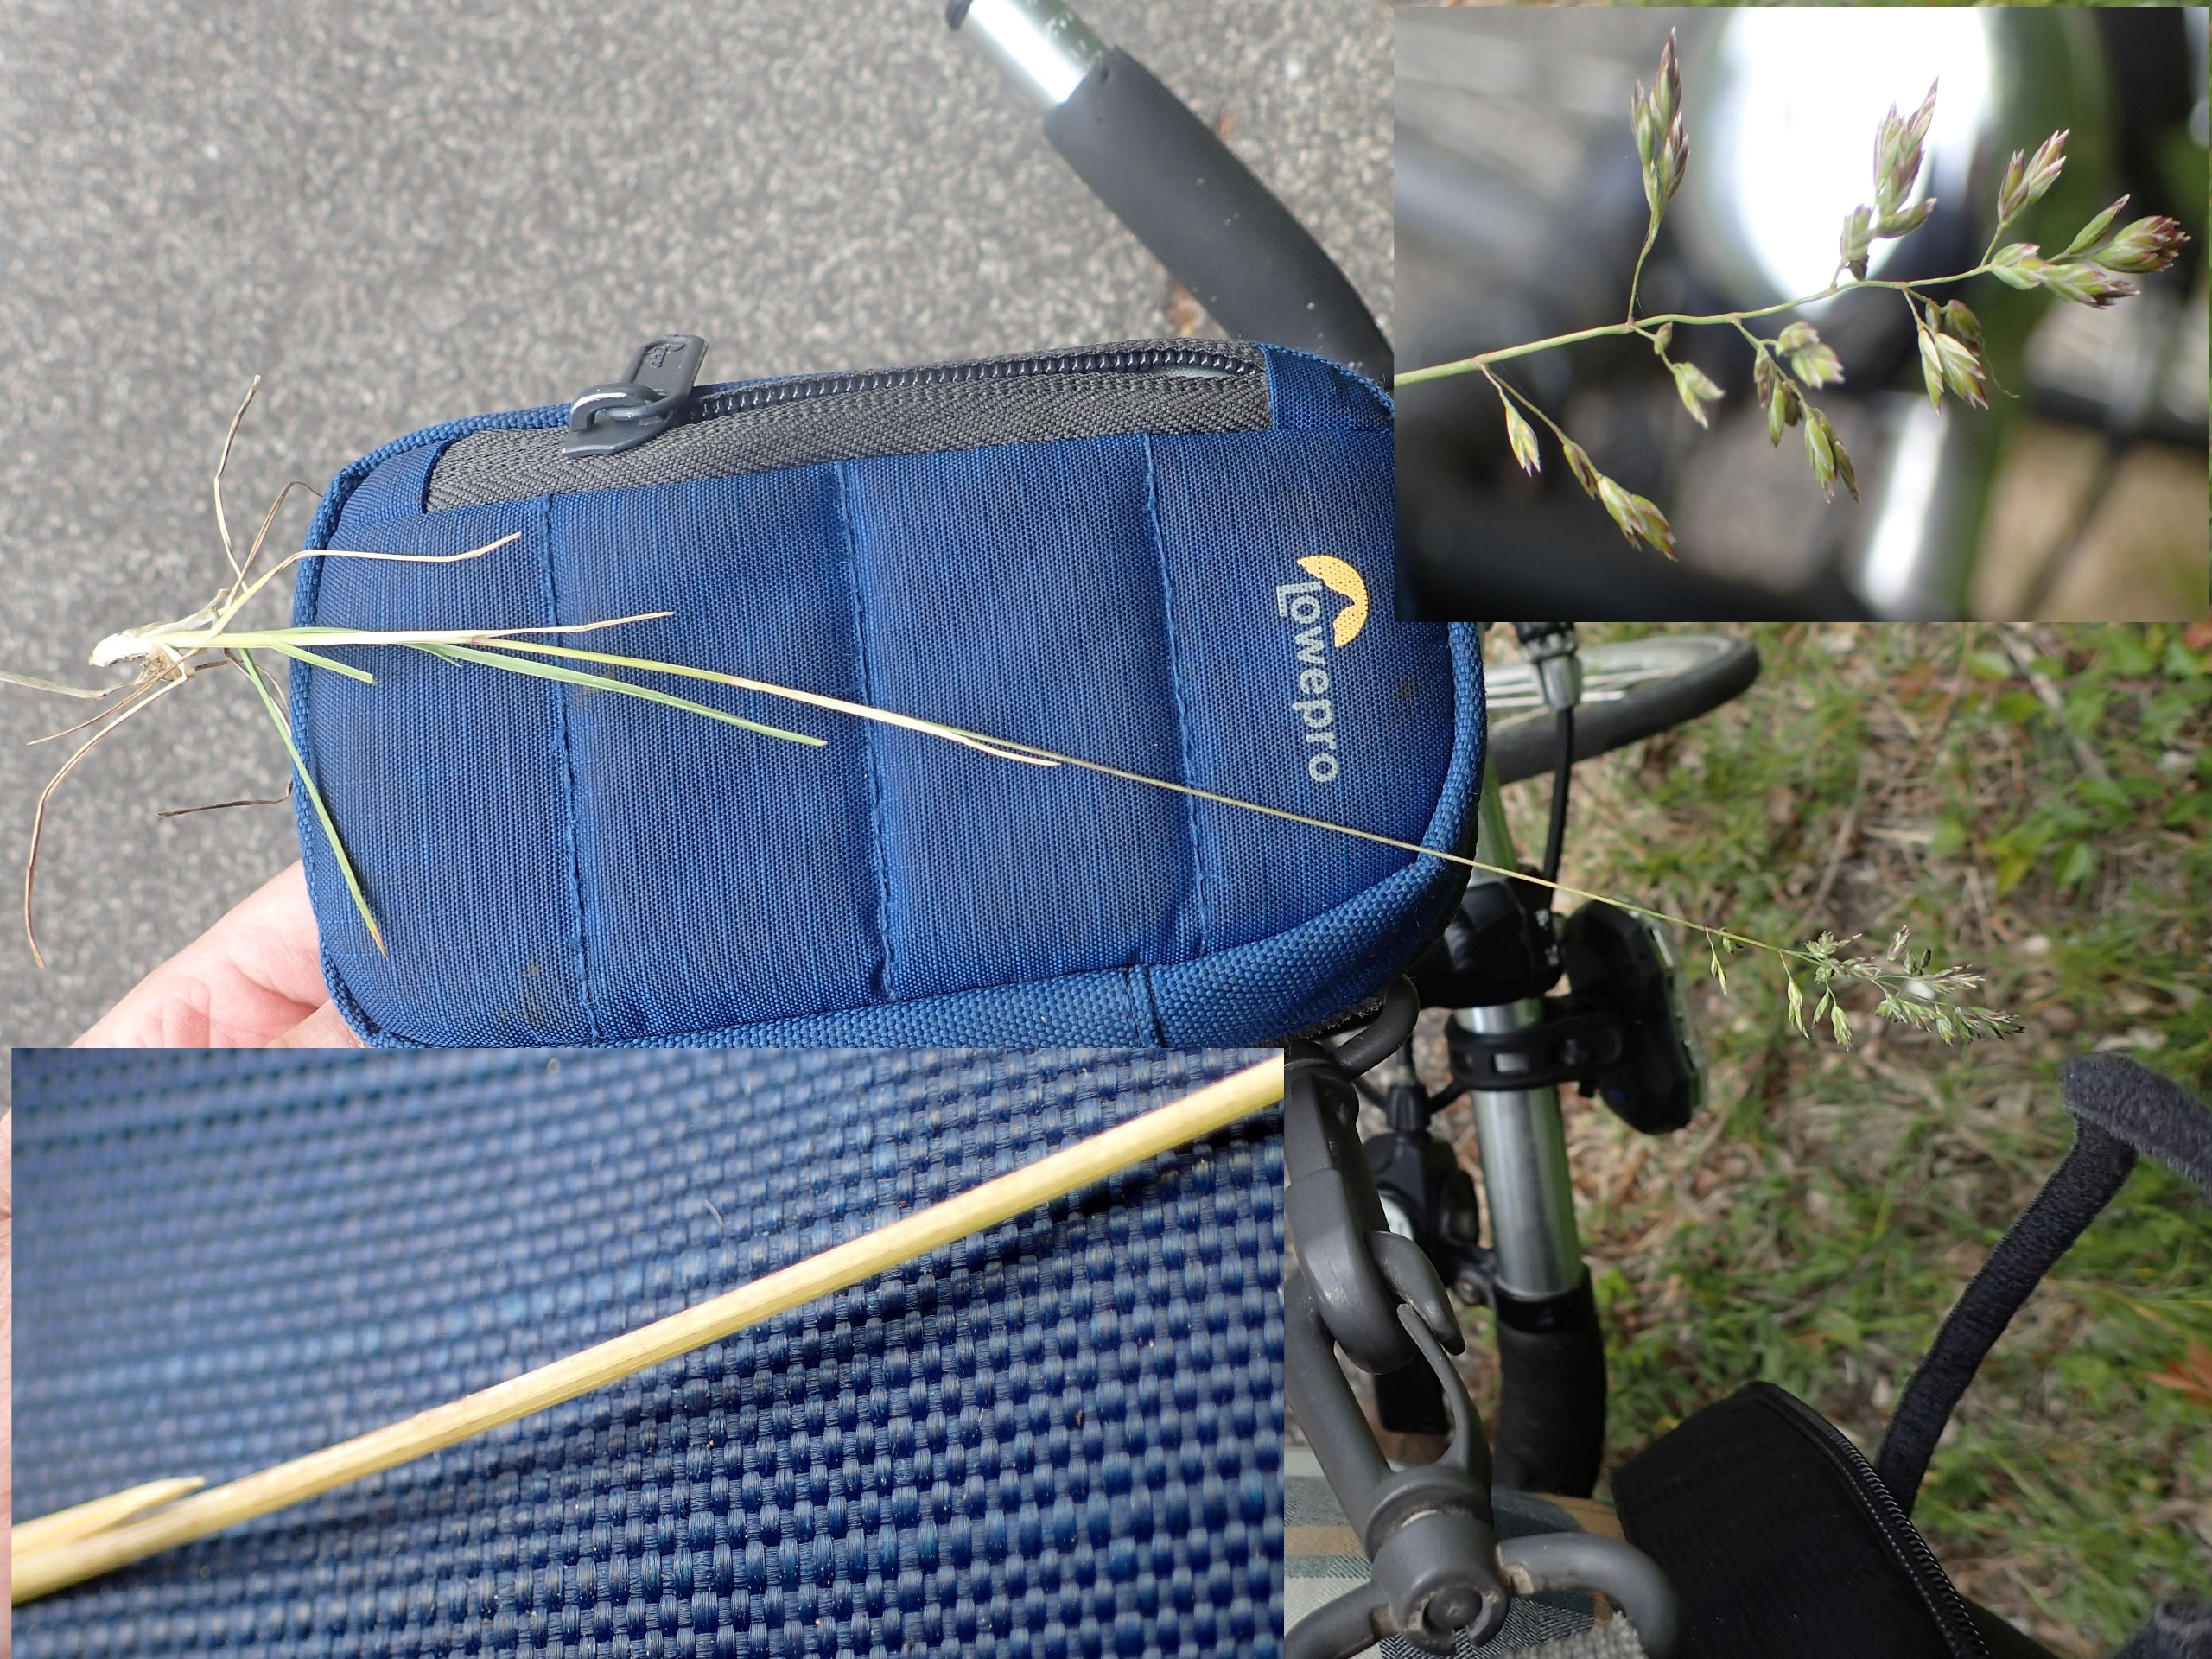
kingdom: Plantae
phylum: Tracheophyta
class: Liliopsida
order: Poales
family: Poaceae
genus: Poa
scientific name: Poa compressa
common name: Fladstrået rapgræs
